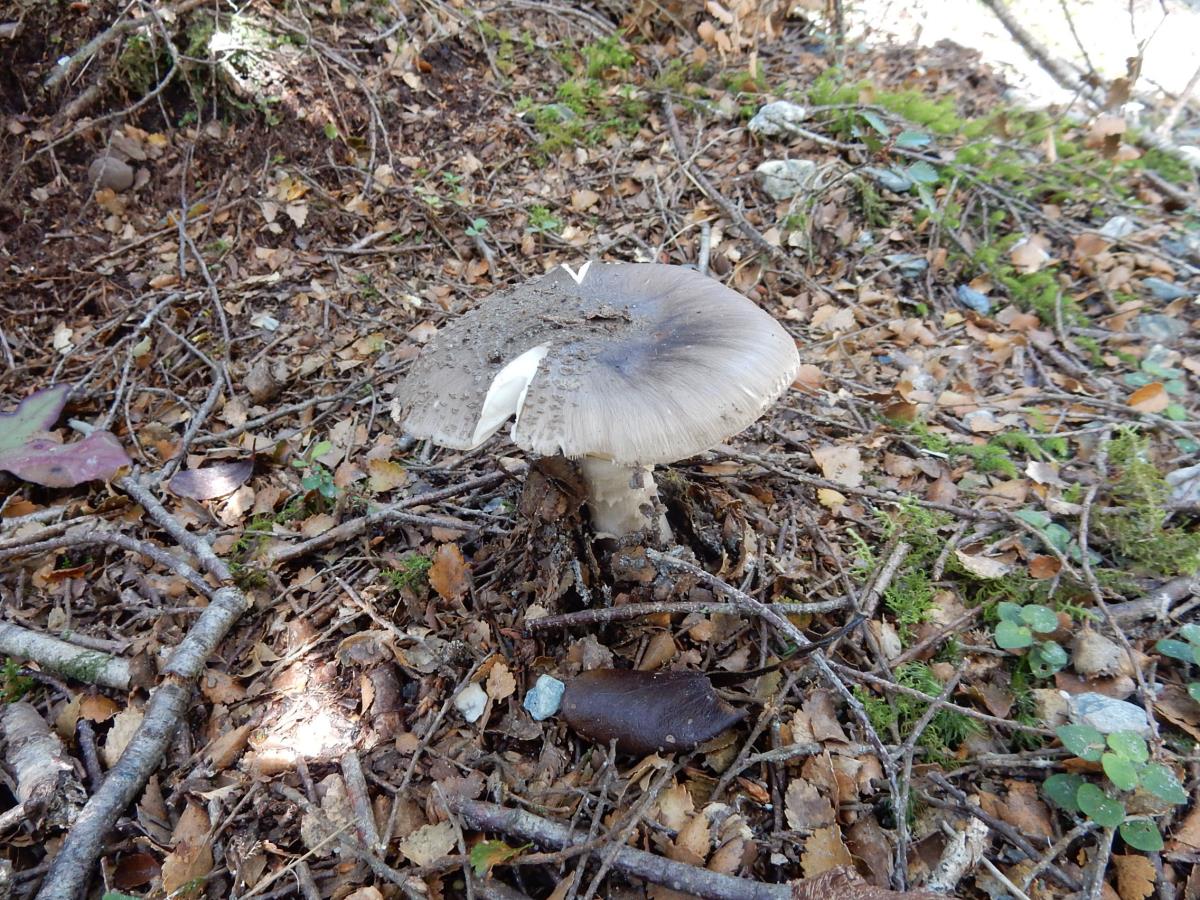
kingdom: Fungi
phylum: Basidiomycota
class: Agaricomycetes
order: Agaricales
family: Amanitaceae
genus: Amanita
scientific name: Amanita nehuta
